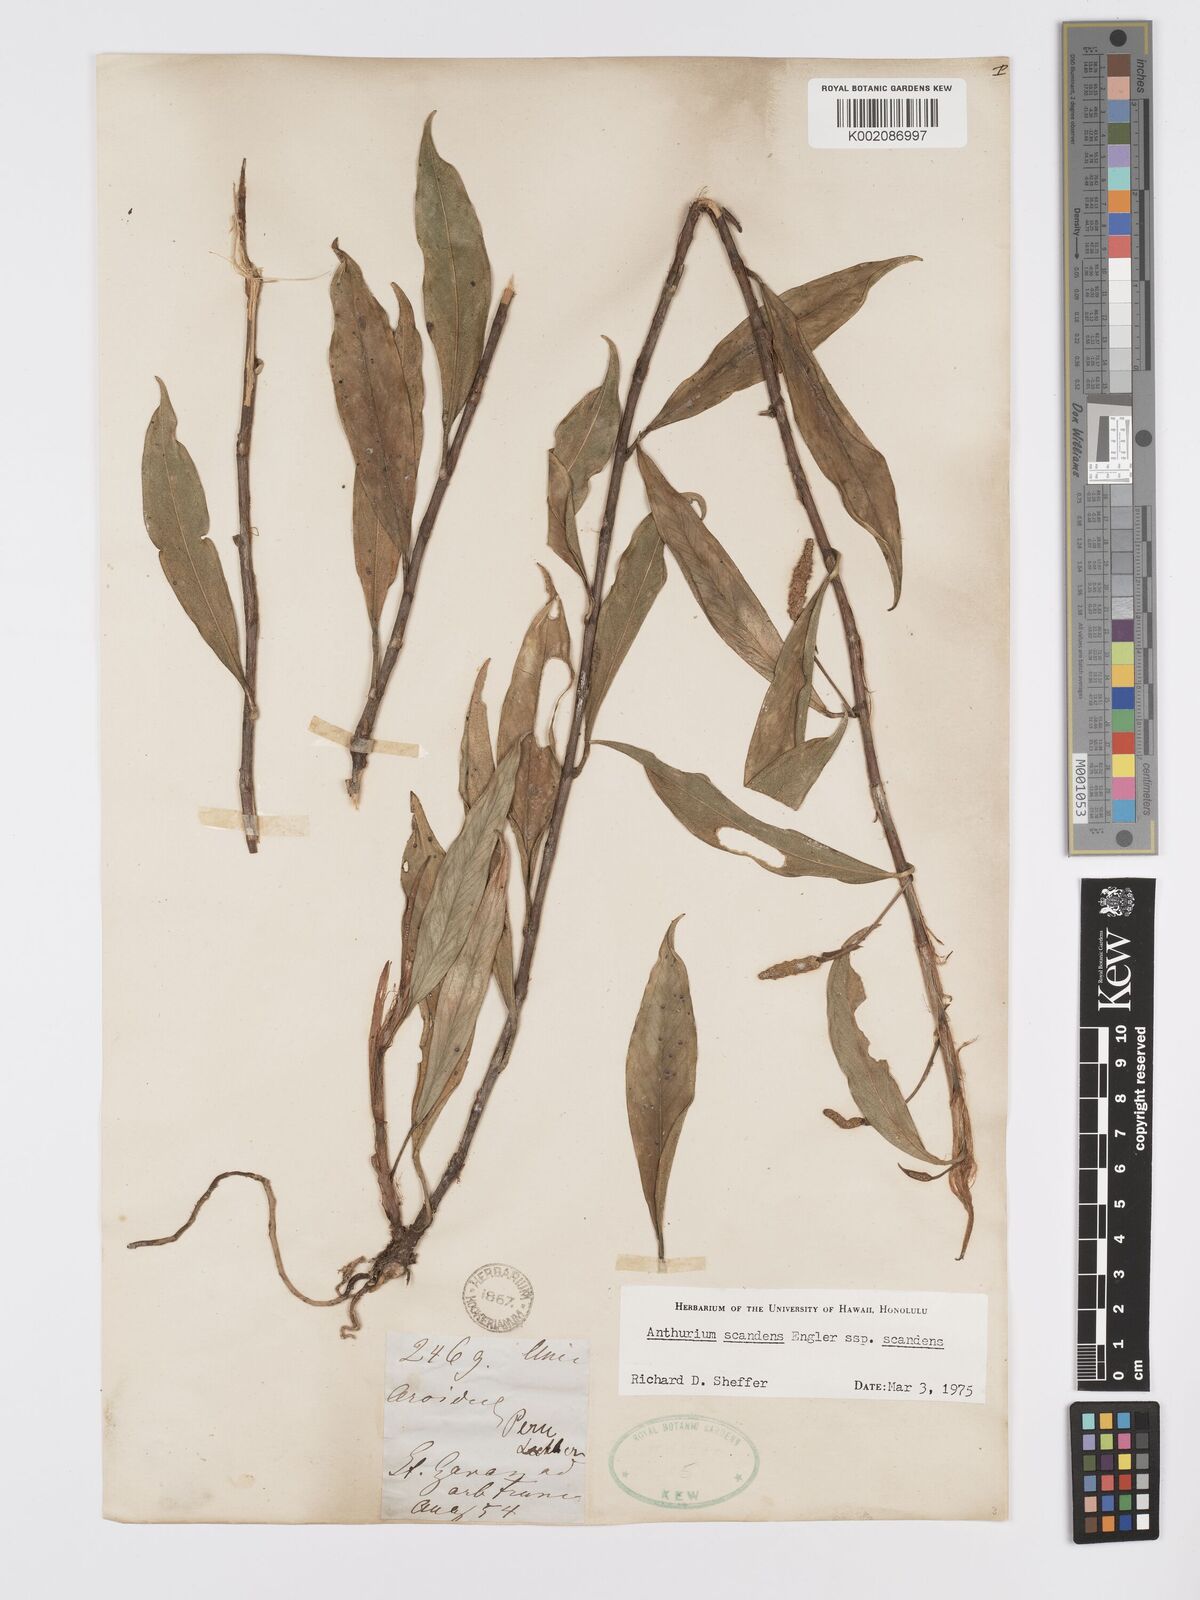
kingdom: Plantae
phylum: Tracheophyta
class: Liliopsida
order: Alismatales
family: Araceae
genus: Anthurium
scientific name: Anthurium scandens
